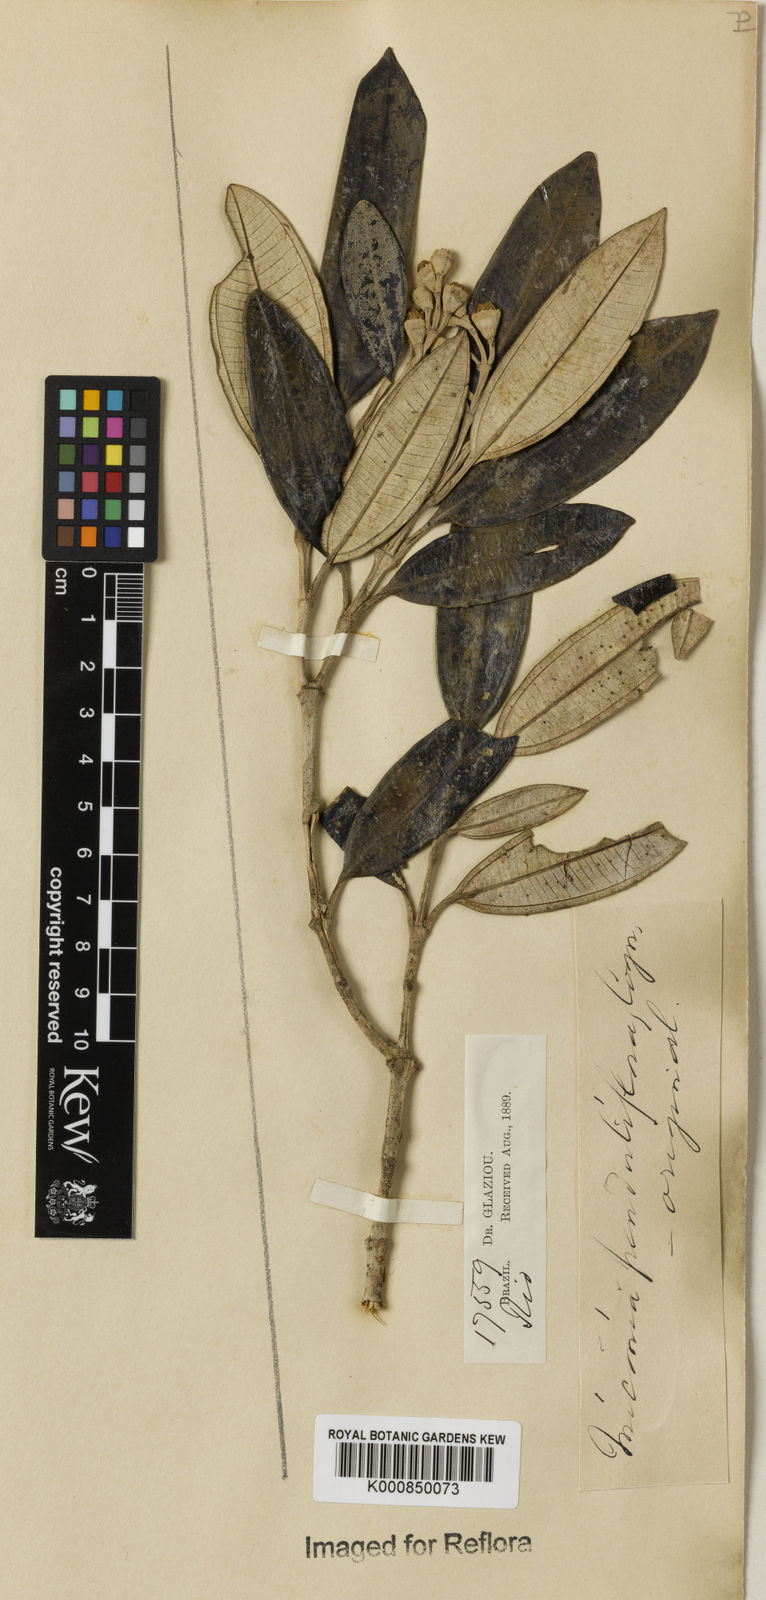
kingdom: Plantae
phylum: Tracheophyta
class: Magnoliopsida
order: Myrtales
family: Melastomataceae
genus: Miconia
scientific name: Miconia penduliflora
